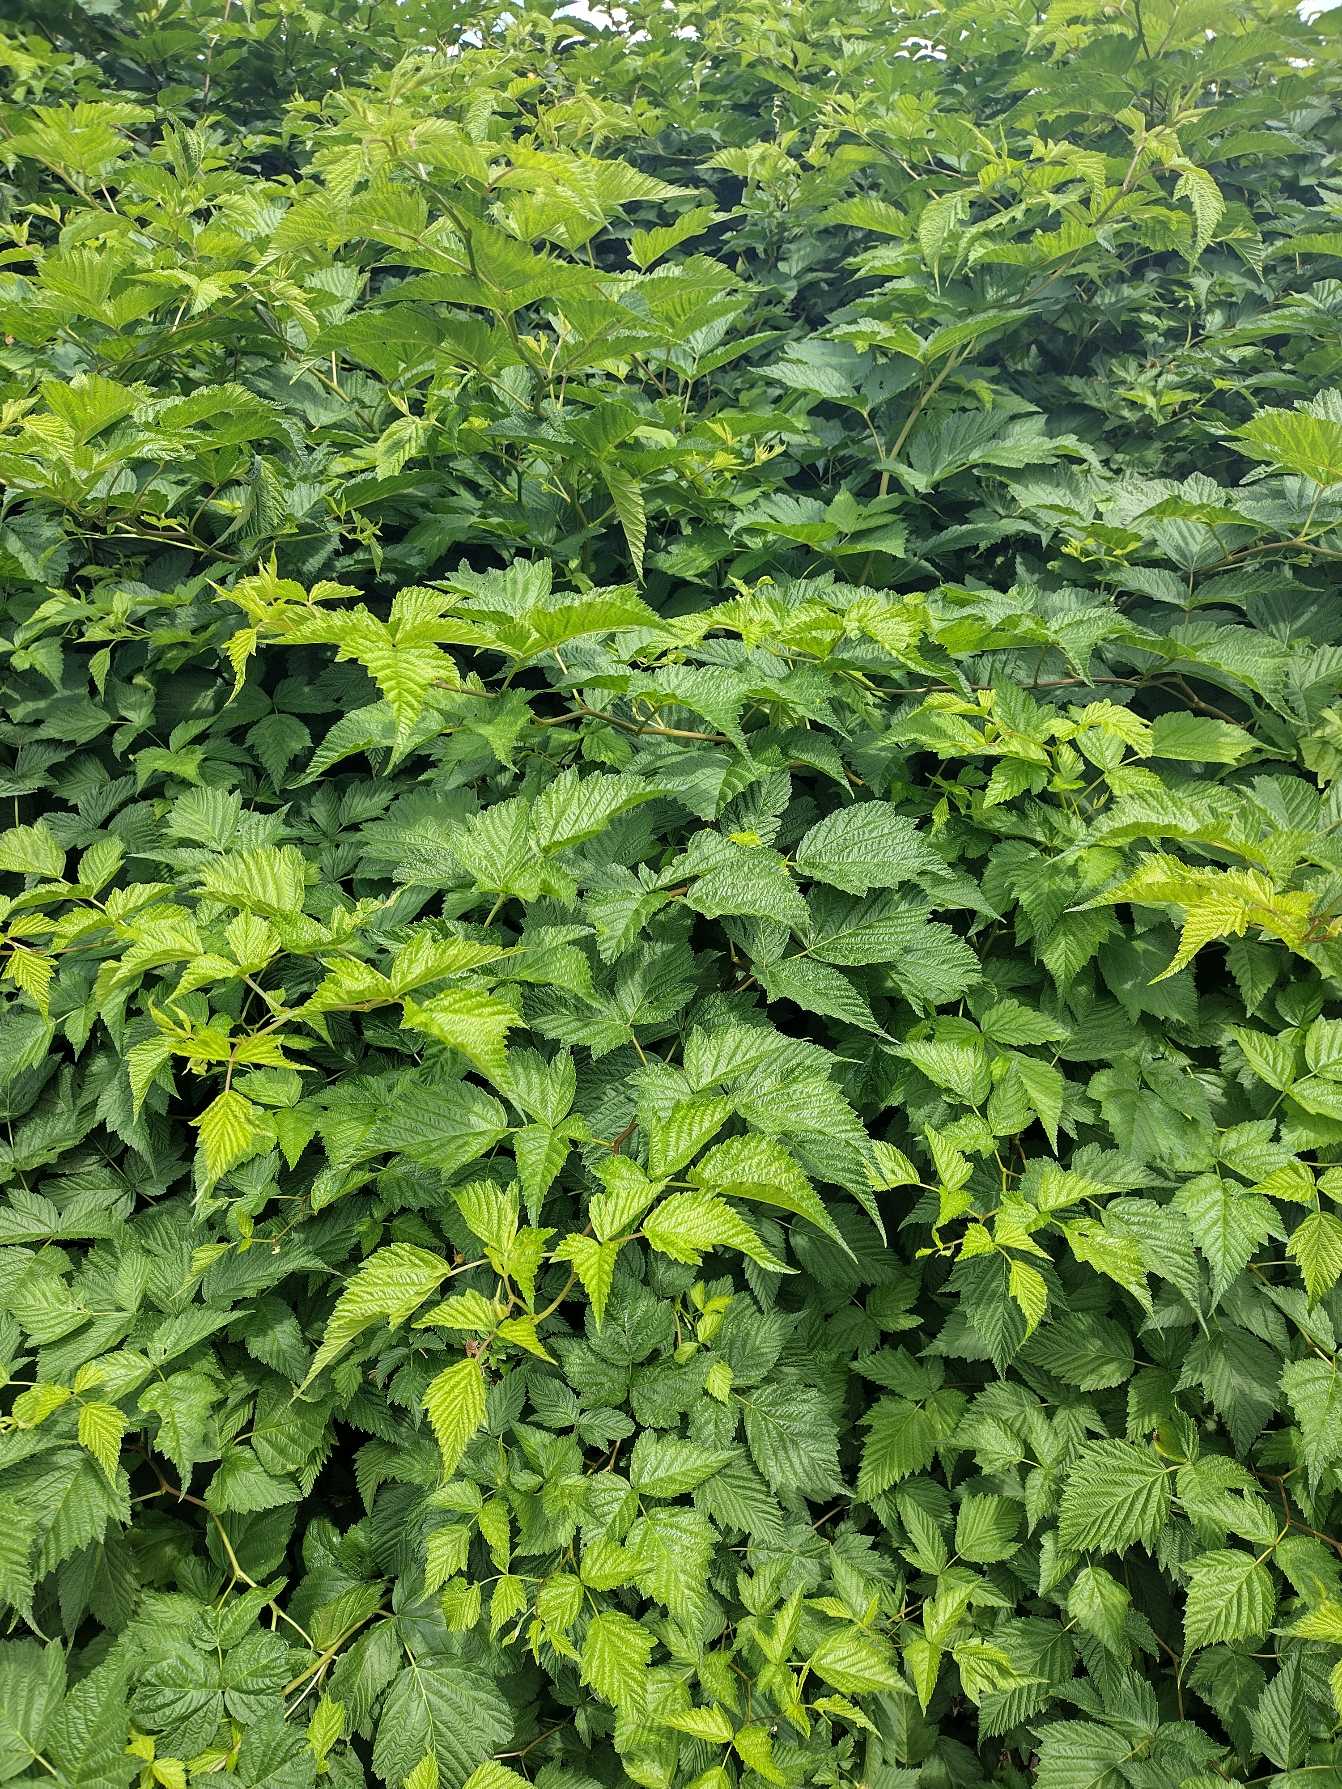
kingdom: Plantae
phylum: Tracheophyta
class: Magnoliopsida
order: Rosales
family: Rosaceae
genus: Rubus
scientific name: Rubus spectabilis
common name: Laksebær
